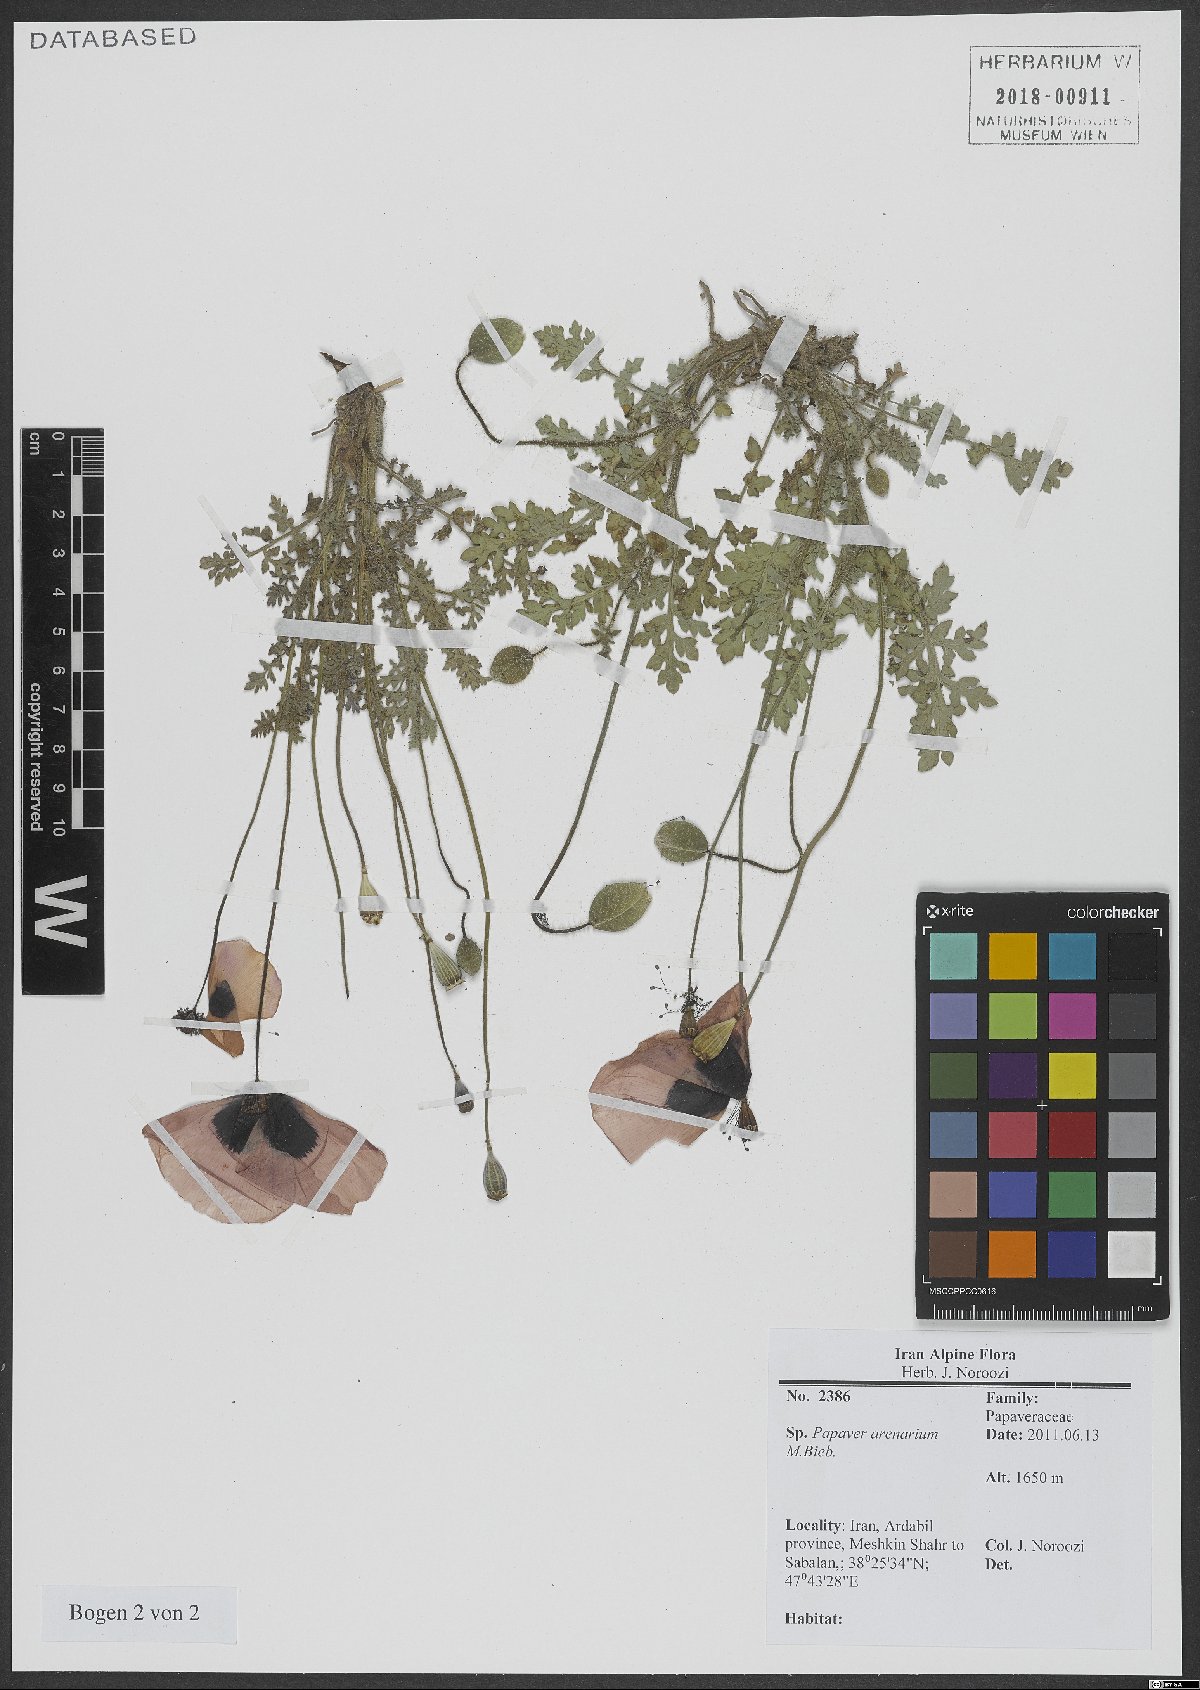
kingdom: Plantae
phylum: Tracheophyta
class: Magnoliopsida
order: Ranunculales
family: Papaveraceae
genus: Papaver
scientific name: Papaver arenarium
